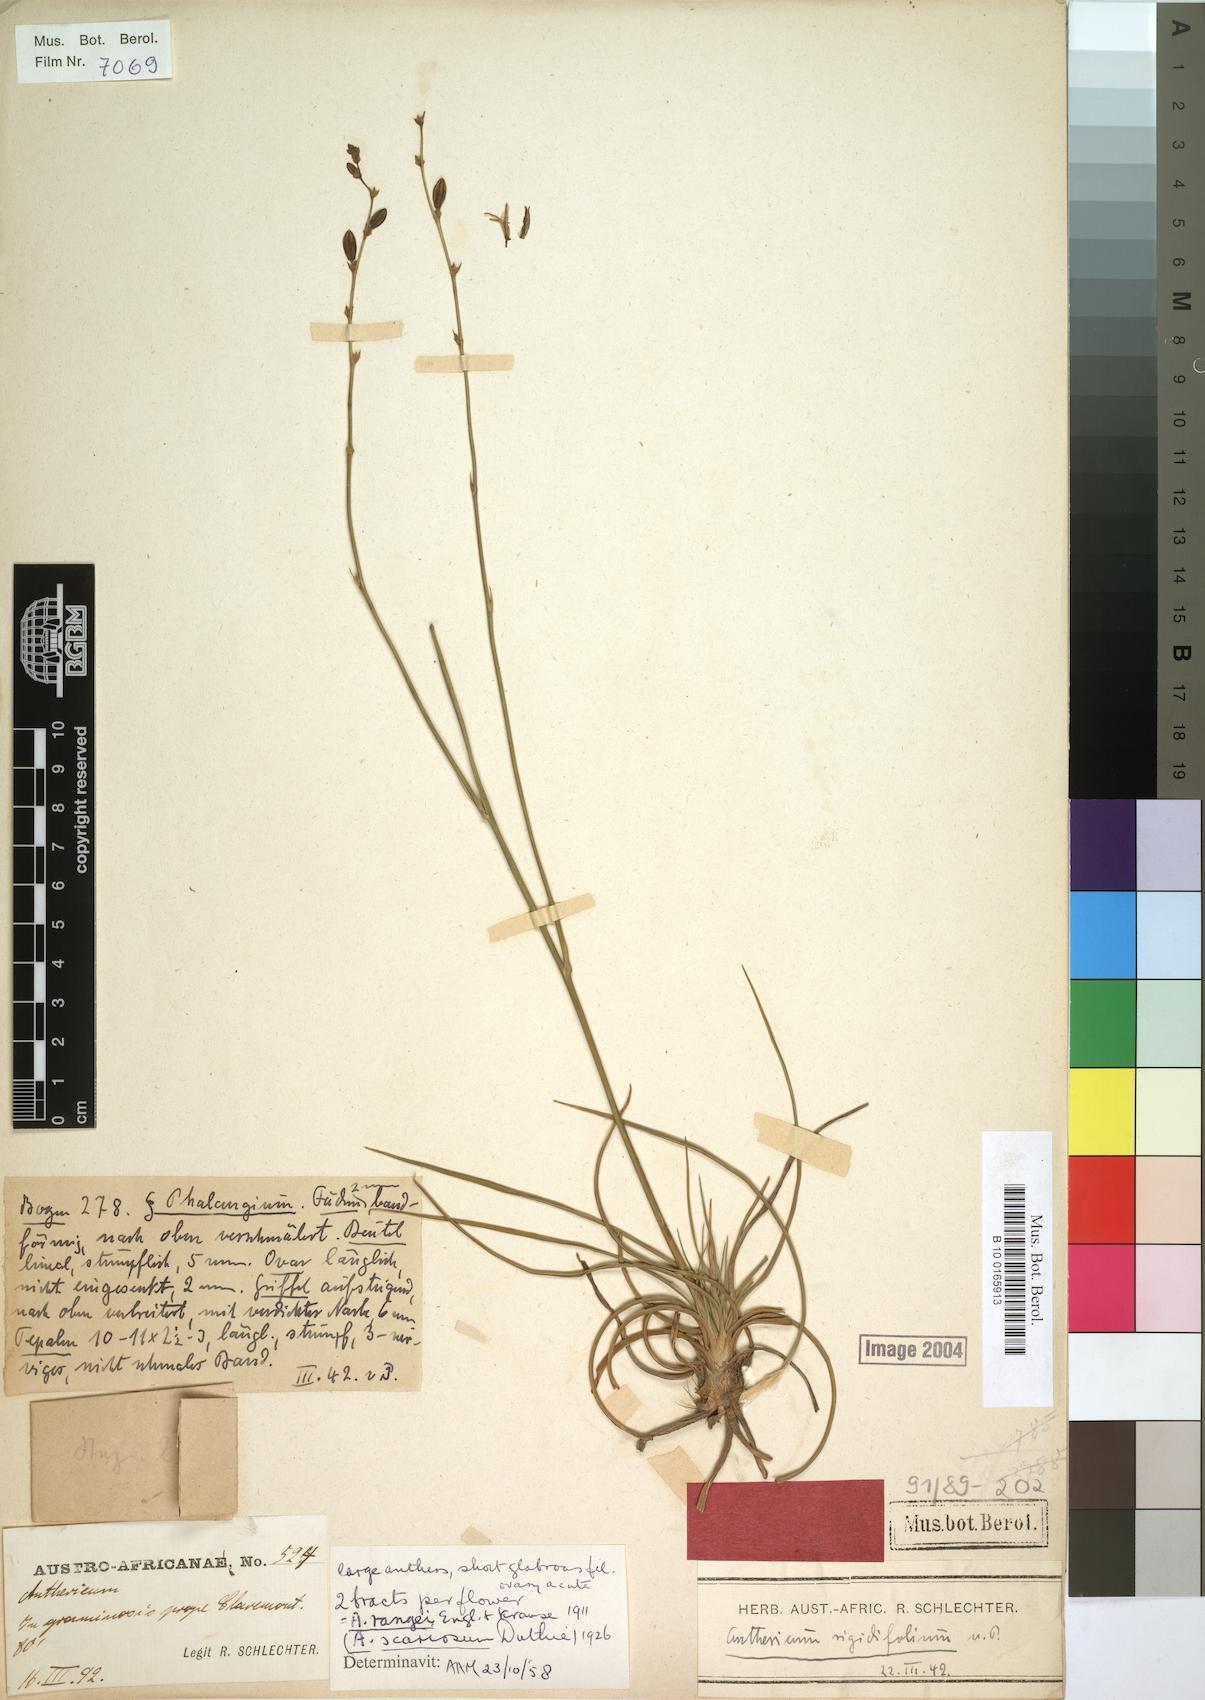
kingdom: Plantae
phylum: Tracheophyta
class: Liliopsida
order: Asparagales
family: Asparagaceae
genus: Chlorophytum
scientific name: Chlorophytum rangei
